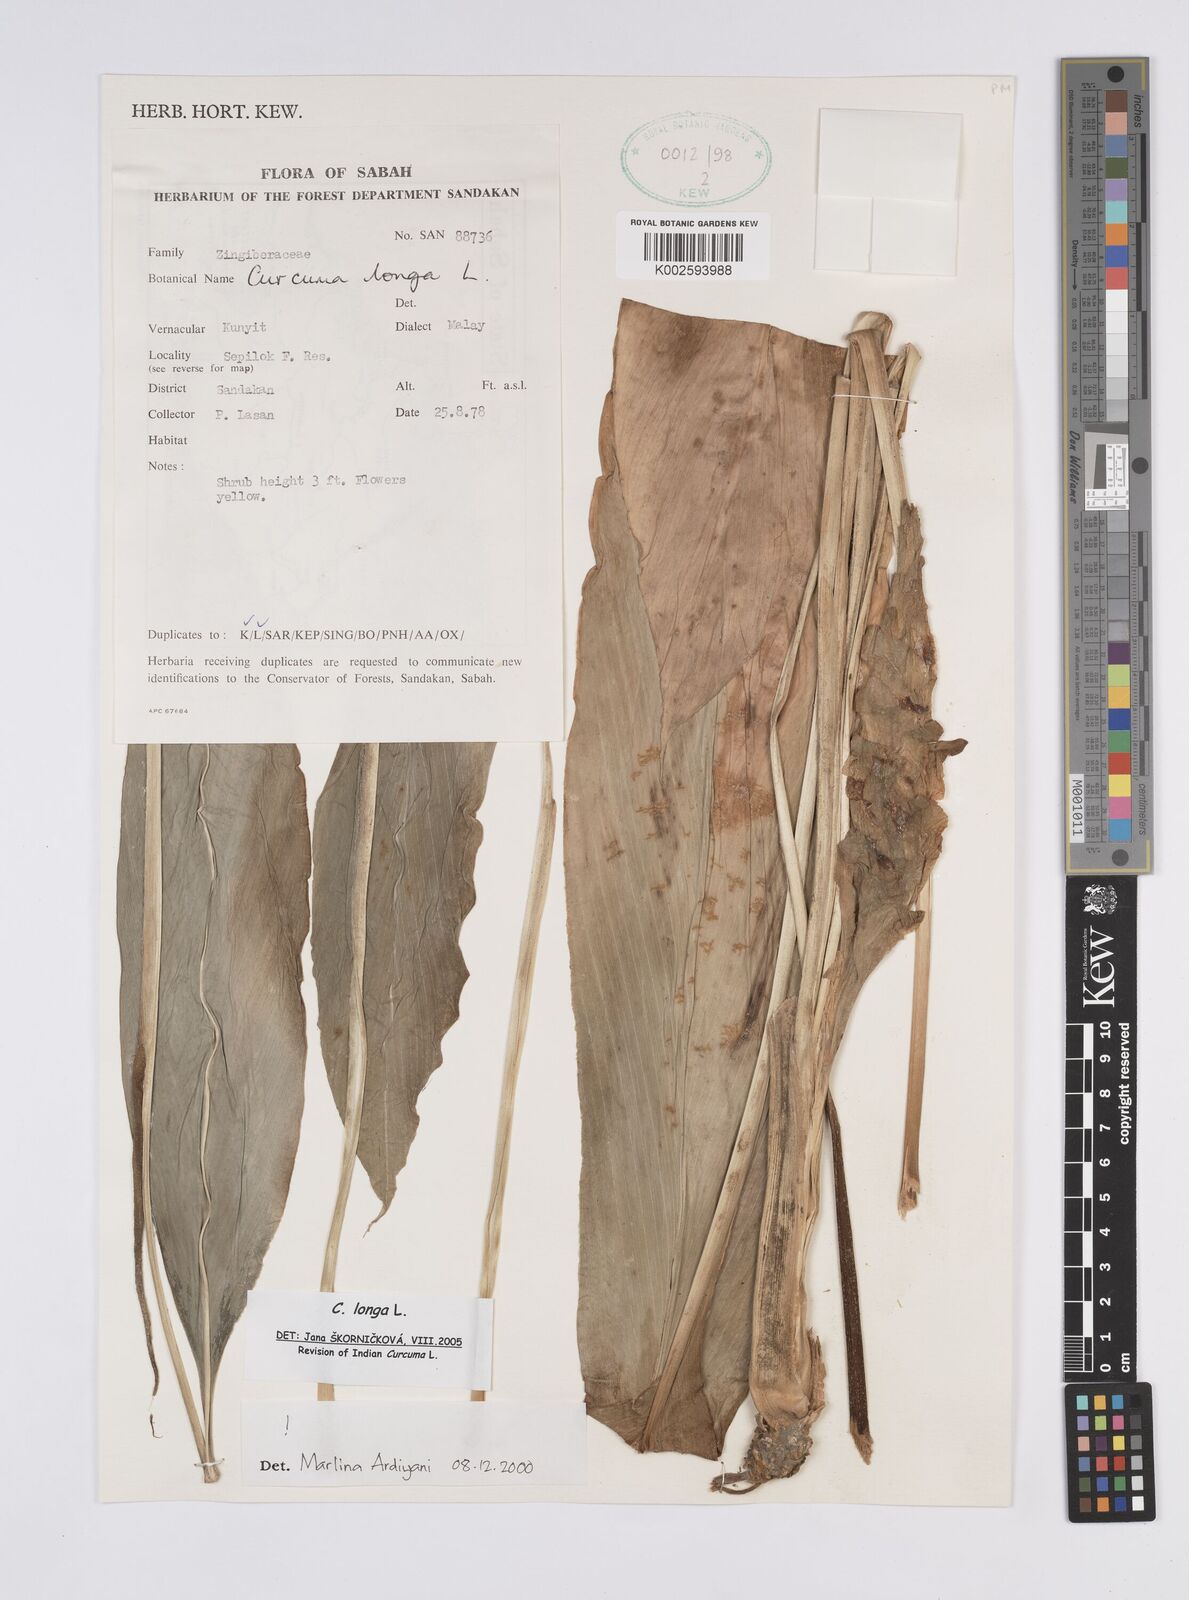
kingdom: Plantae
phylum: Tracheophyta
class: Liliopsida
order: Zingiberales
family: Zingiberaceae
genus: Curcuma
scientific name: Curcuma longa
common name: Turmeric
